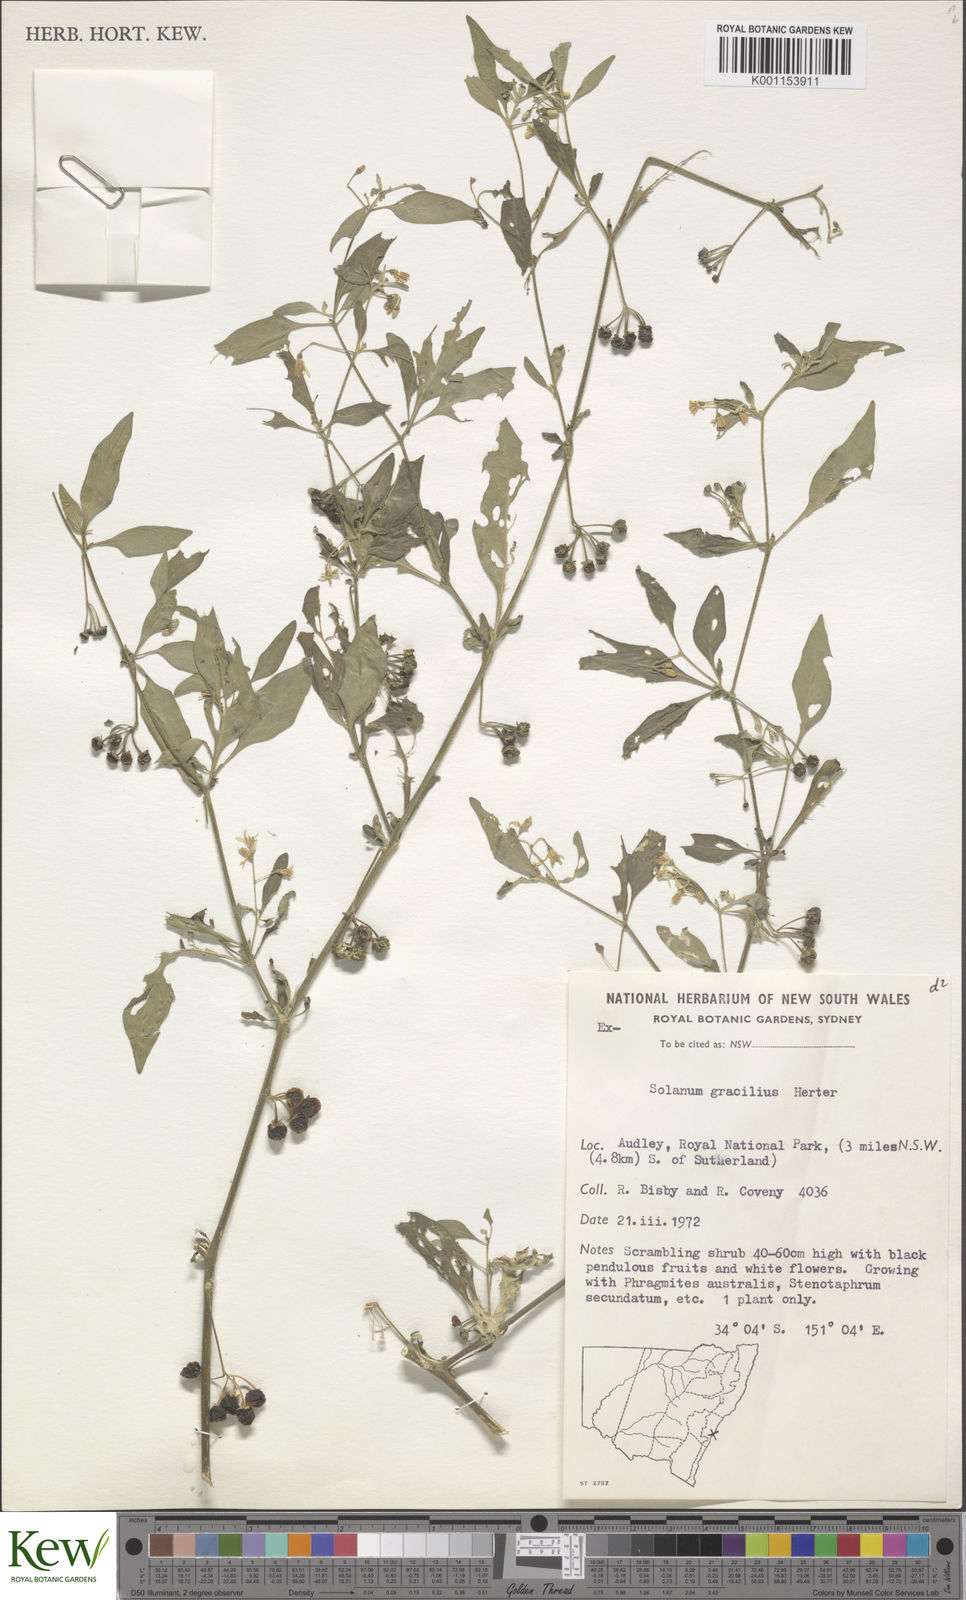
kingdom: Plantae
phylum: Tracheophyta
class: Magnoliopsida
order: Solanales
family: Solanaceae
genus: Solanum
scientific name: Solanum chenopodioides
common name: Tall nightshade
